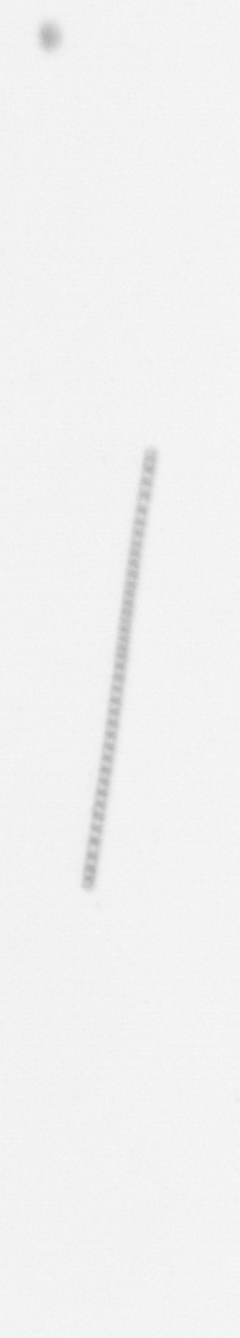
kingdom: Chromista
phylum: Ochrophyta
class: Bacillariophyceae
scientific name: Bacillariophyceae
